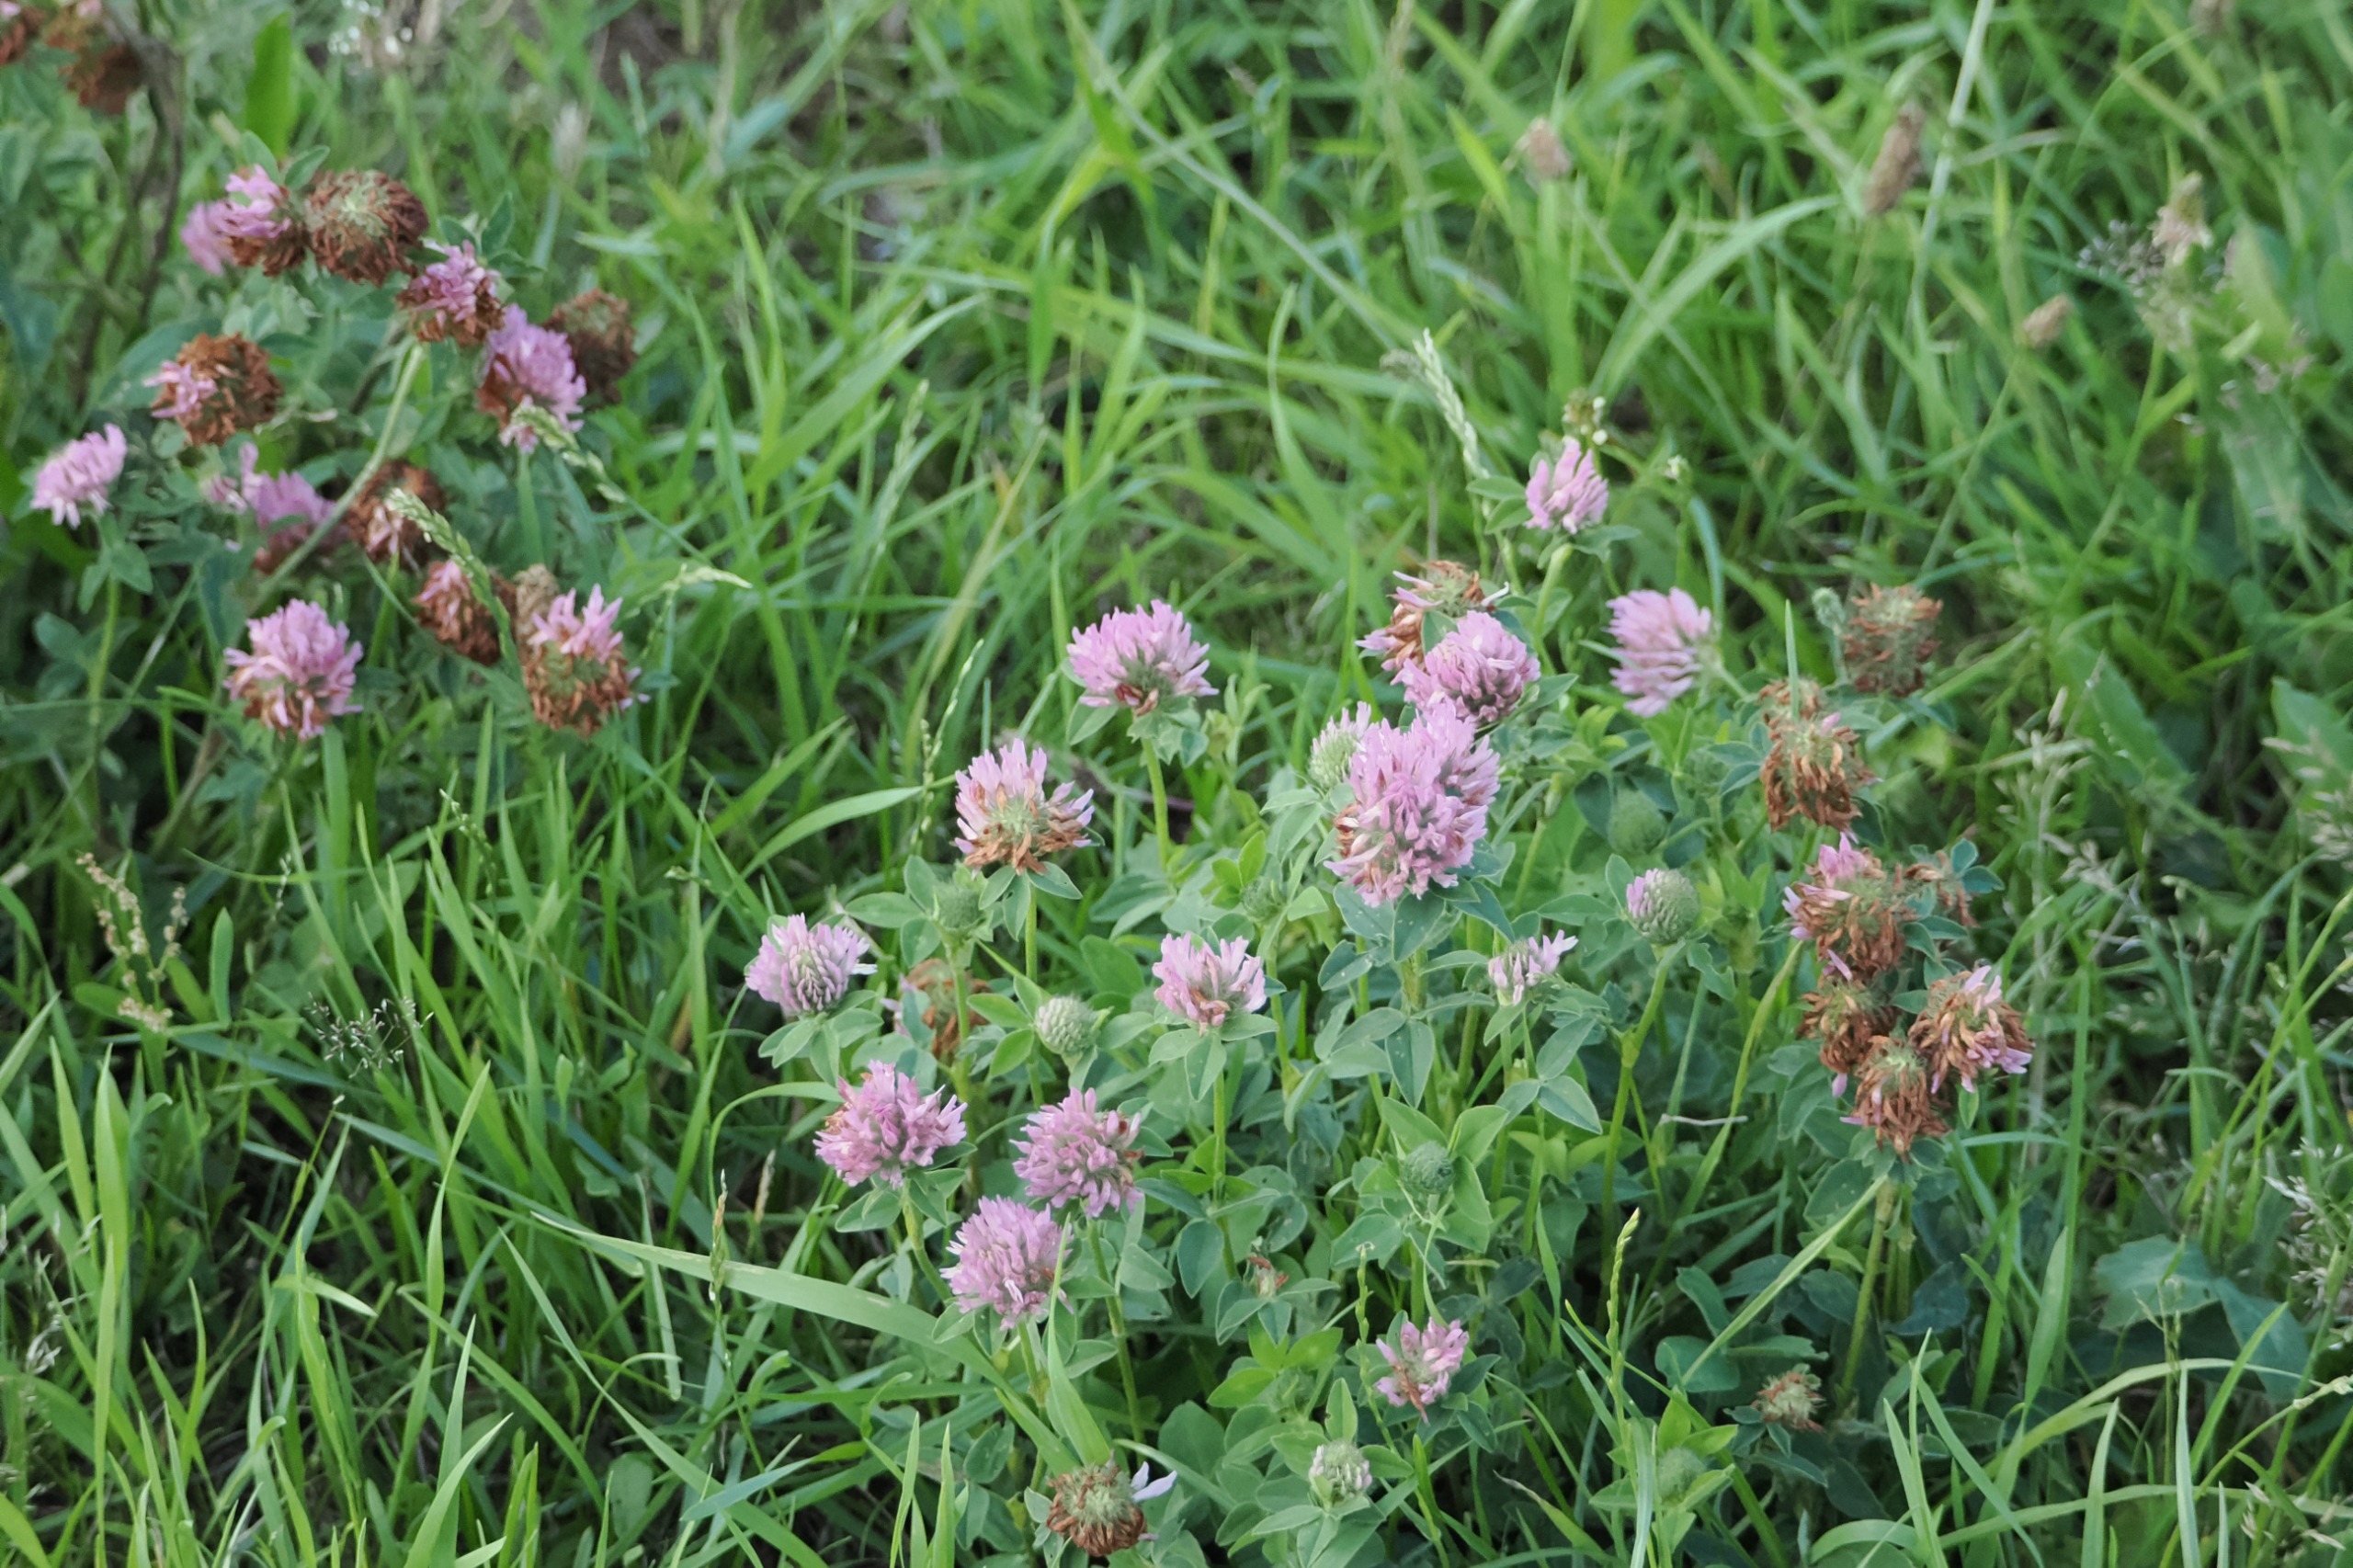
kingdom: Plantae
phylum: Tracheophyta
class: Magnoliopsida
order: Fabales
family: Fabaceae
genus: Trifolium
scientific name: Trifolium pratense
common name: Rød-kløver
